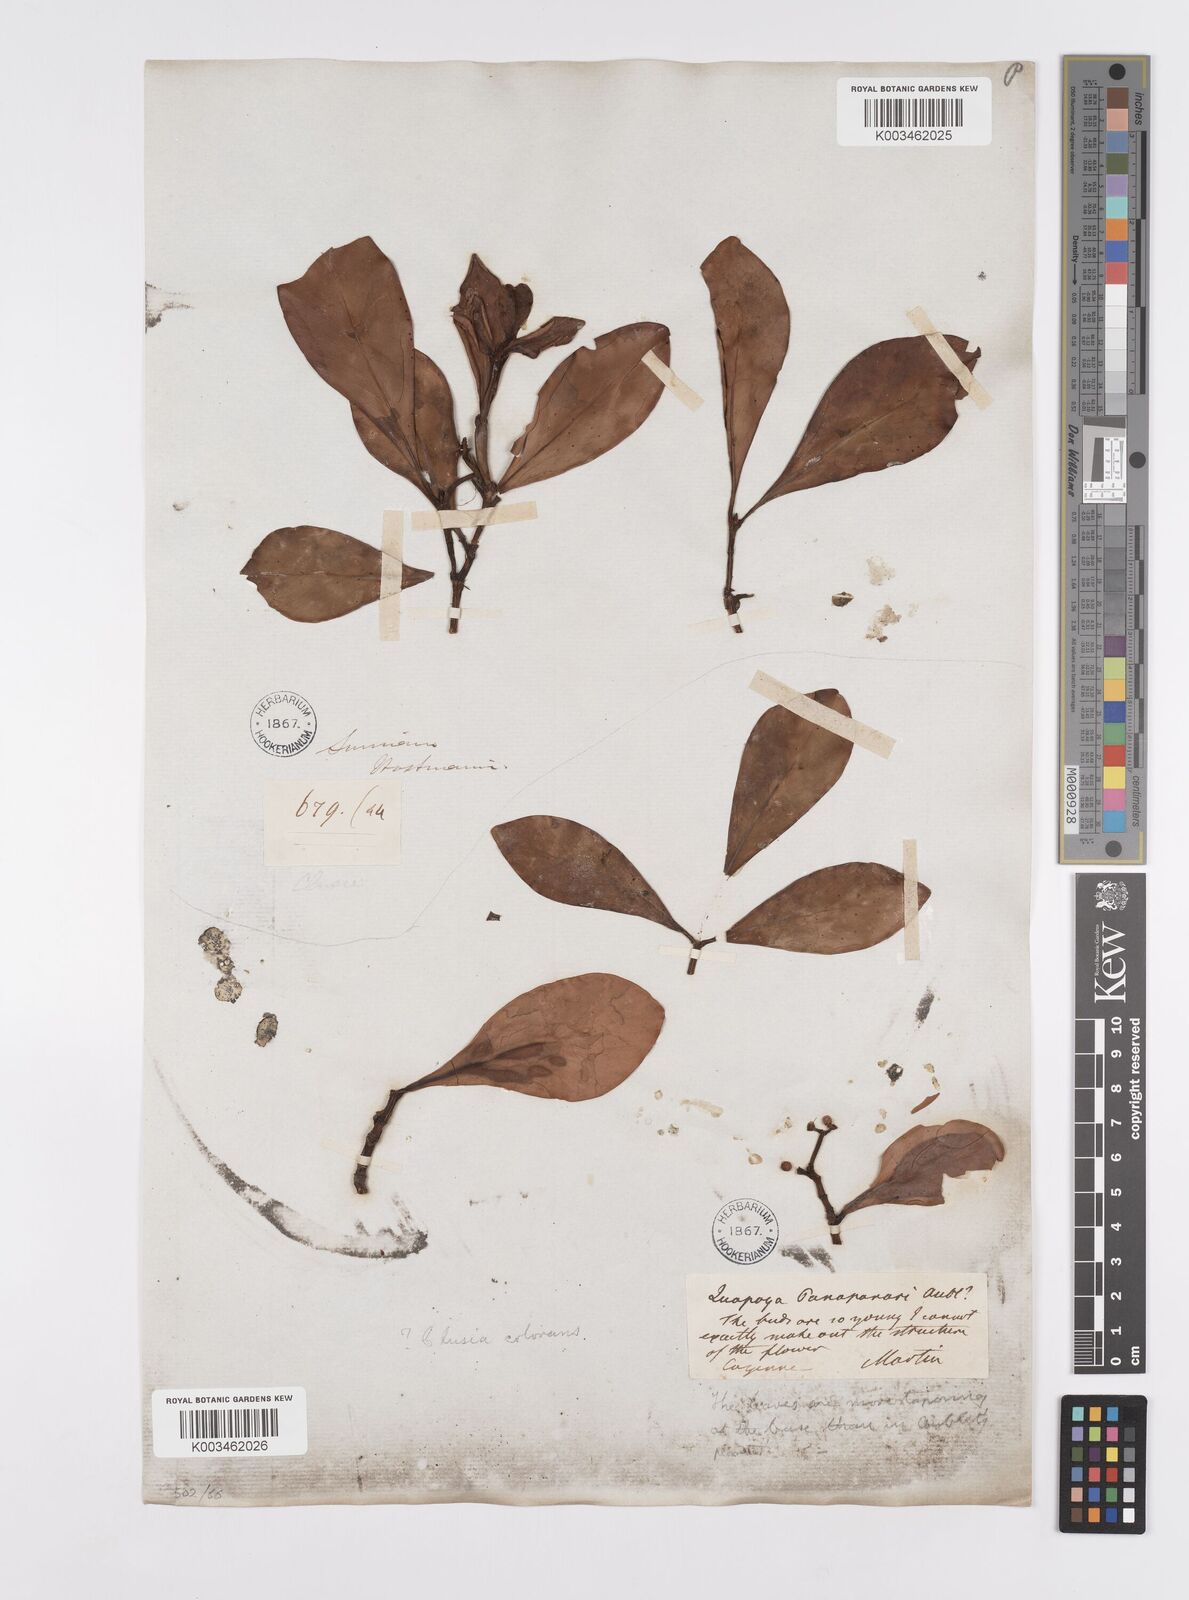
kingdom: Plantae
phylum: Tracheophyta
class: Magnoliopsida
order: Malpighiales
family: Clusiaceae
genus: Clusia
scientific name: Clusia panapanari
